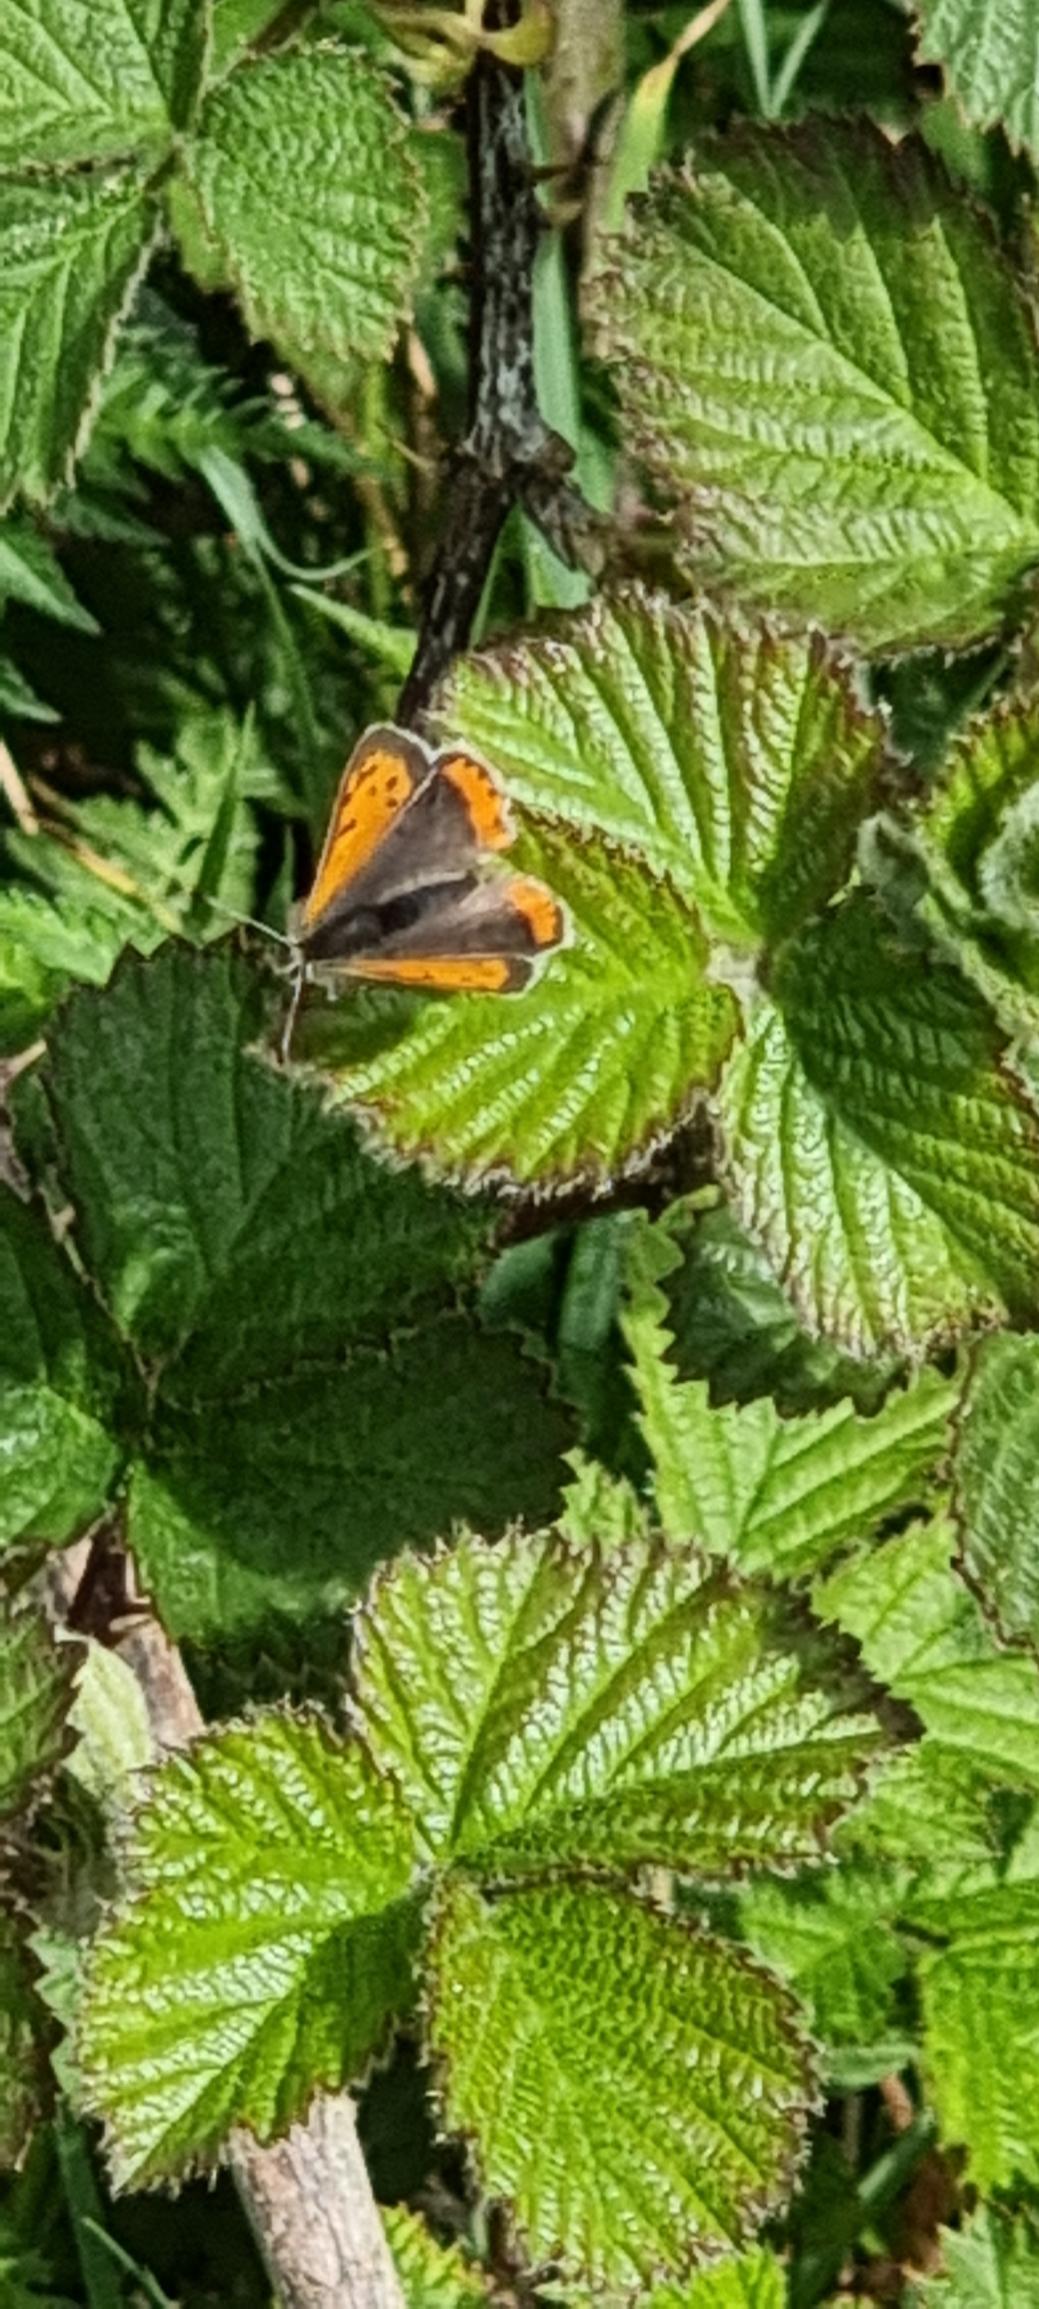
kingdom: Animalia
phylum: Arthropoda
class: Insecta
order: Lepidoptera
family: Lycaenidae
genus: Lycaena
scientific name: Lycaena phlaeas
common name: Lille ildfugl
